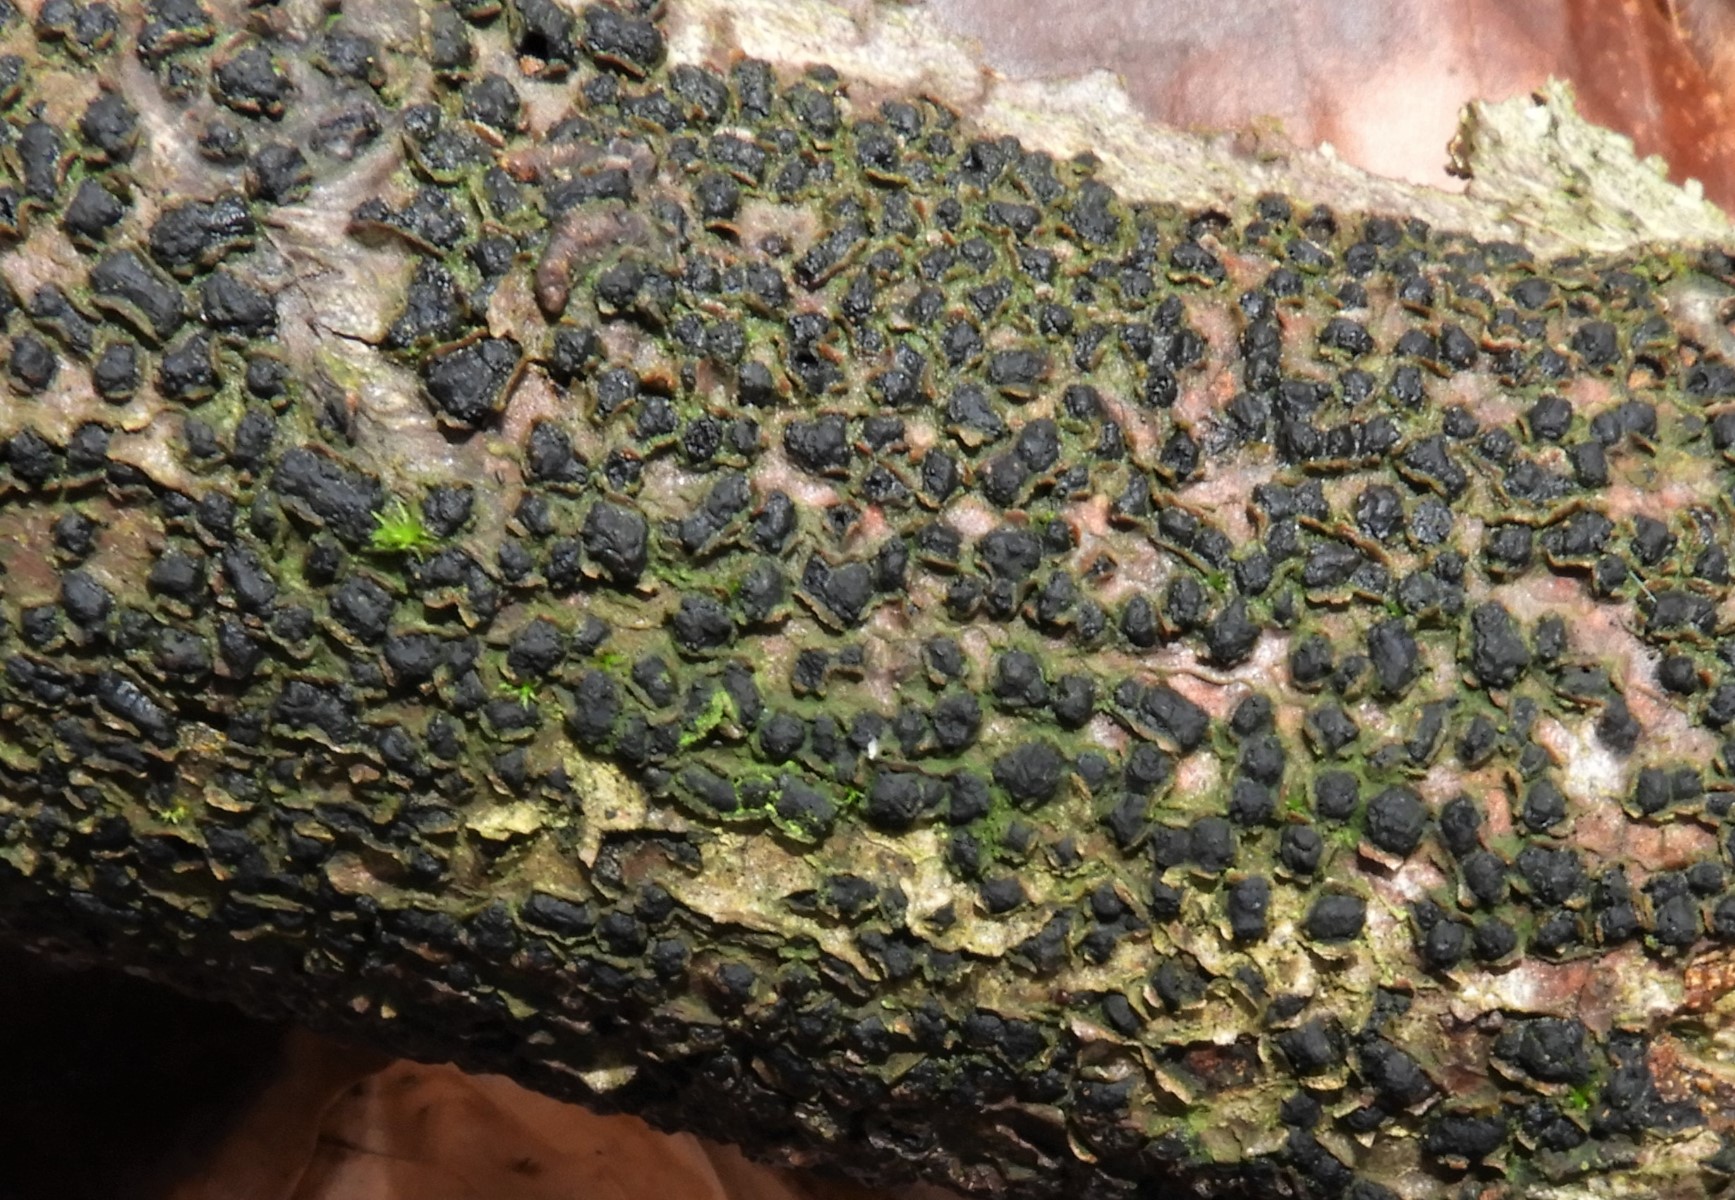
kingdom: Fungi
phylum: Ascomycota
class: Sordariomycetes
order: Xylariales
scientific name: Xylariales
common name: stødsvampordenen
